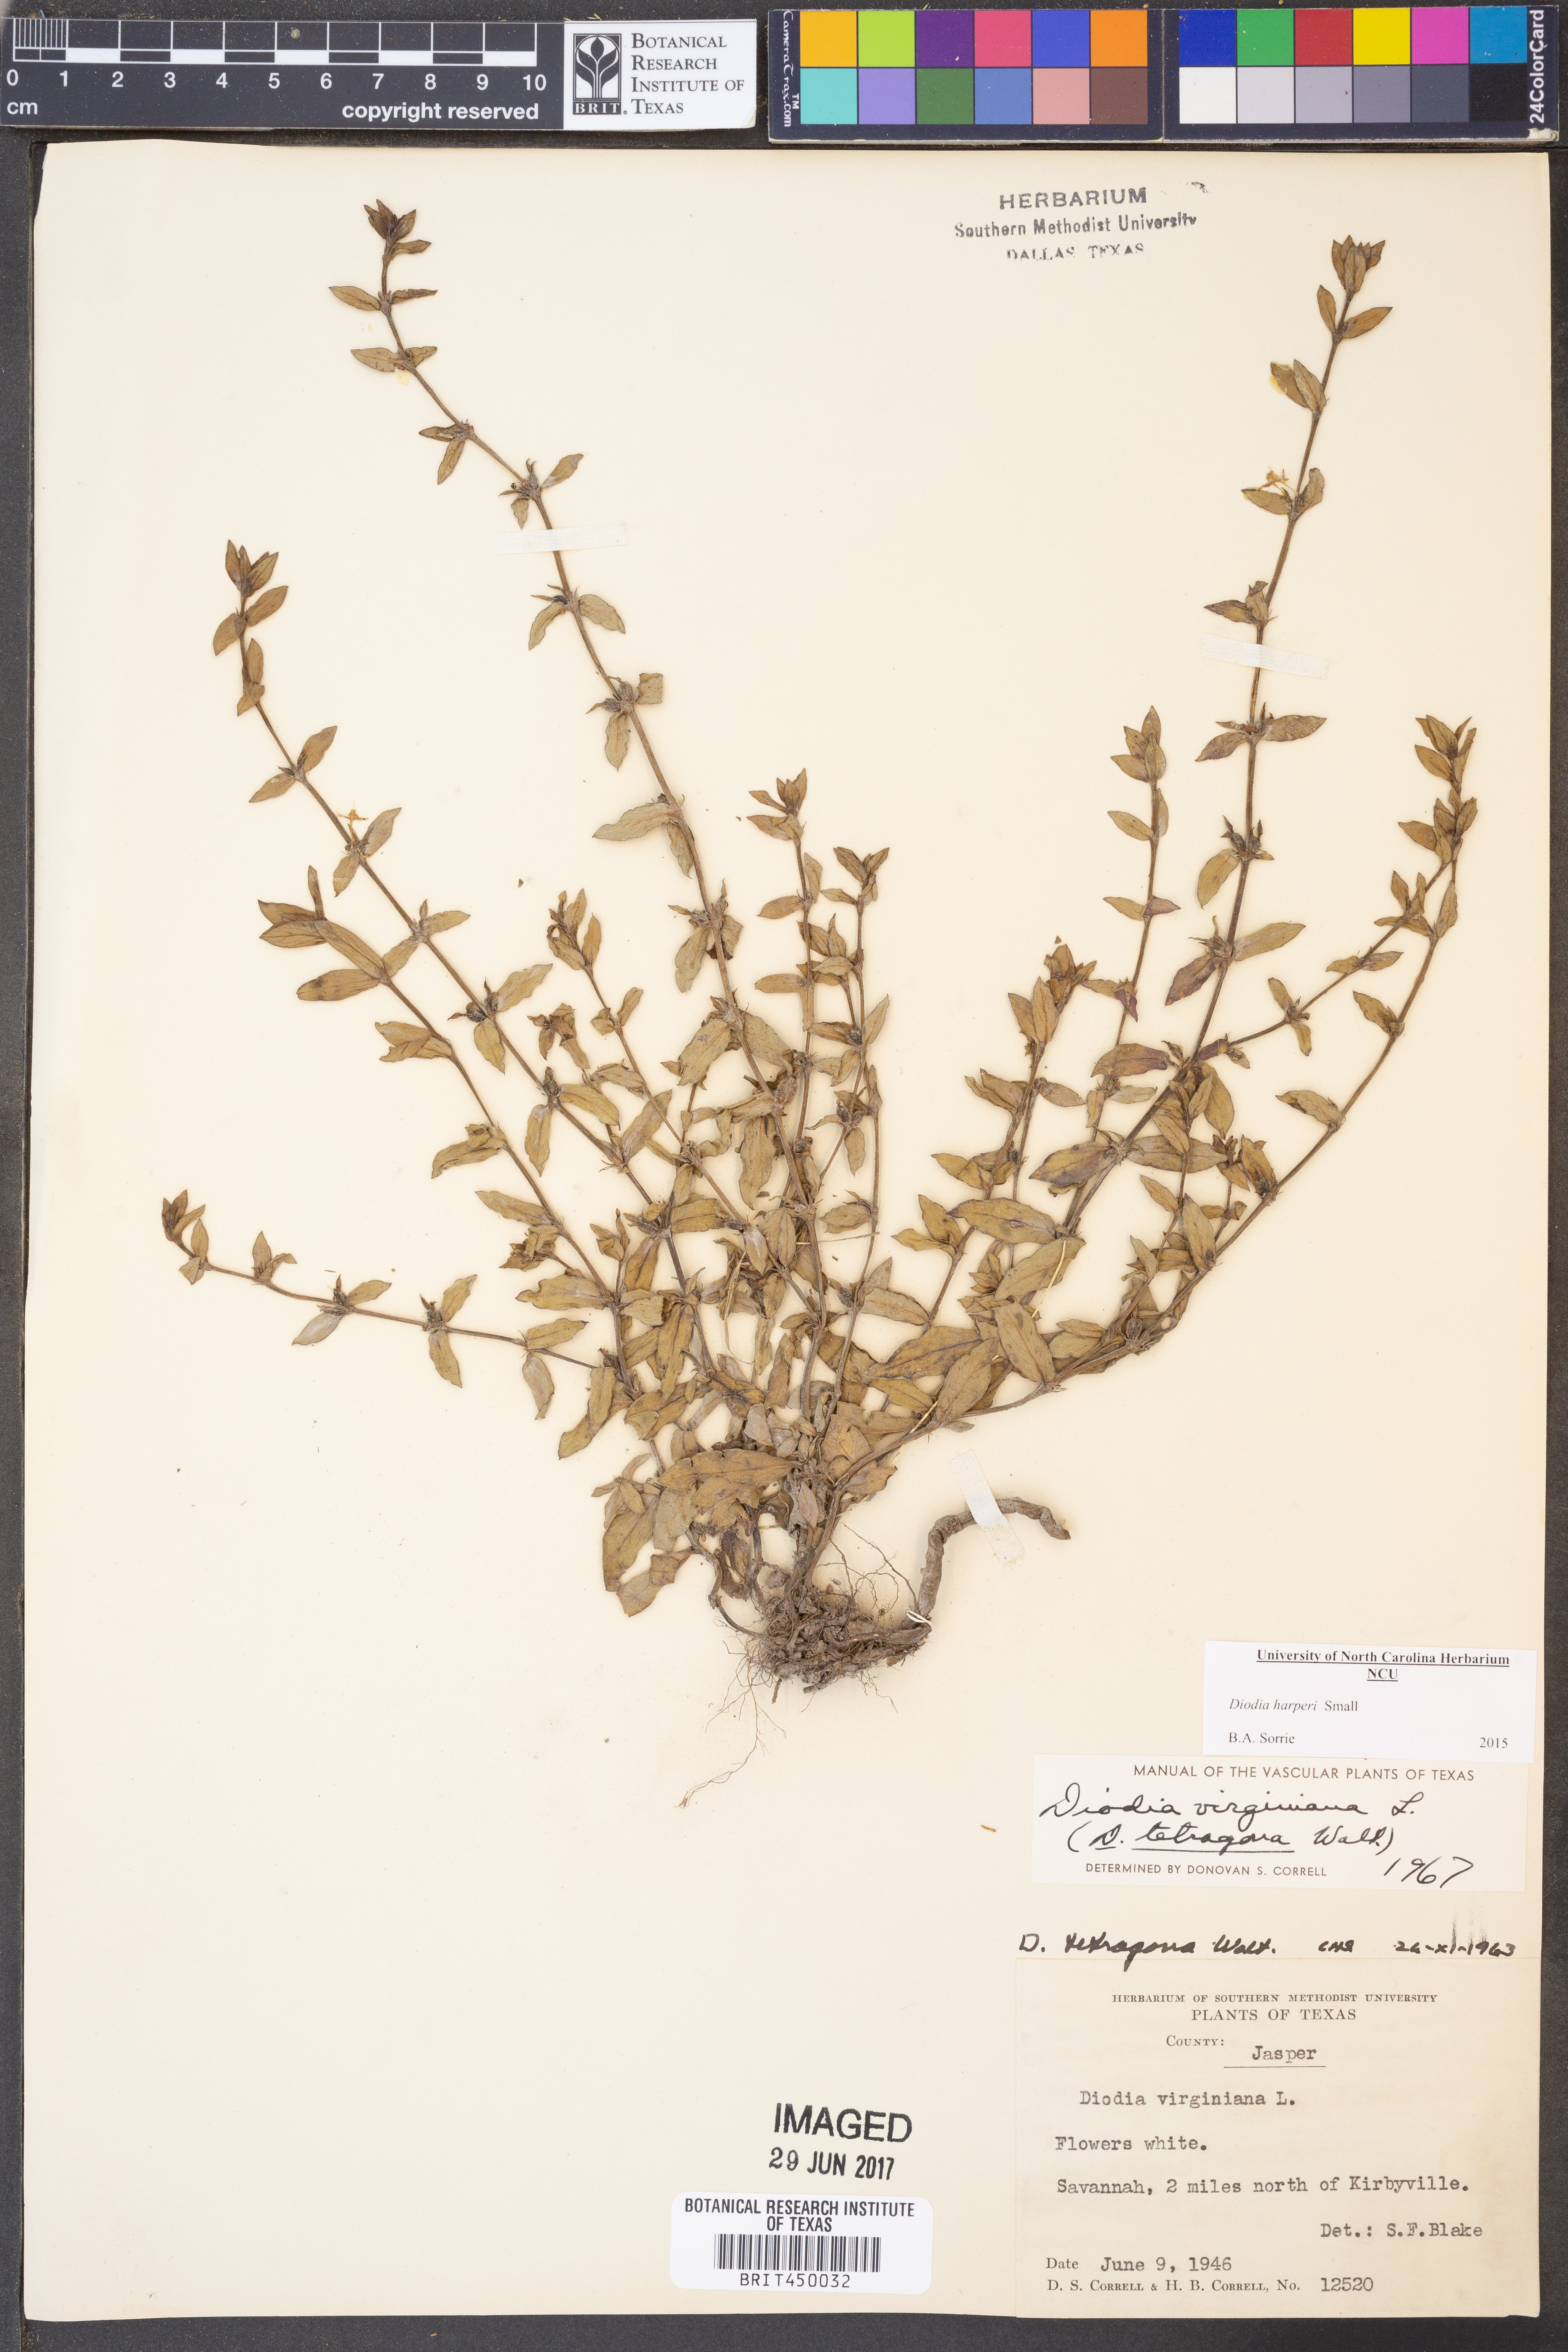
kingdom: Plantae
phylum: Tracheophyta
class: Magnoliopsida
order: Gentianales
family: Rubiaceae
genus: Diodia
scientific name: Diodia virginiana
